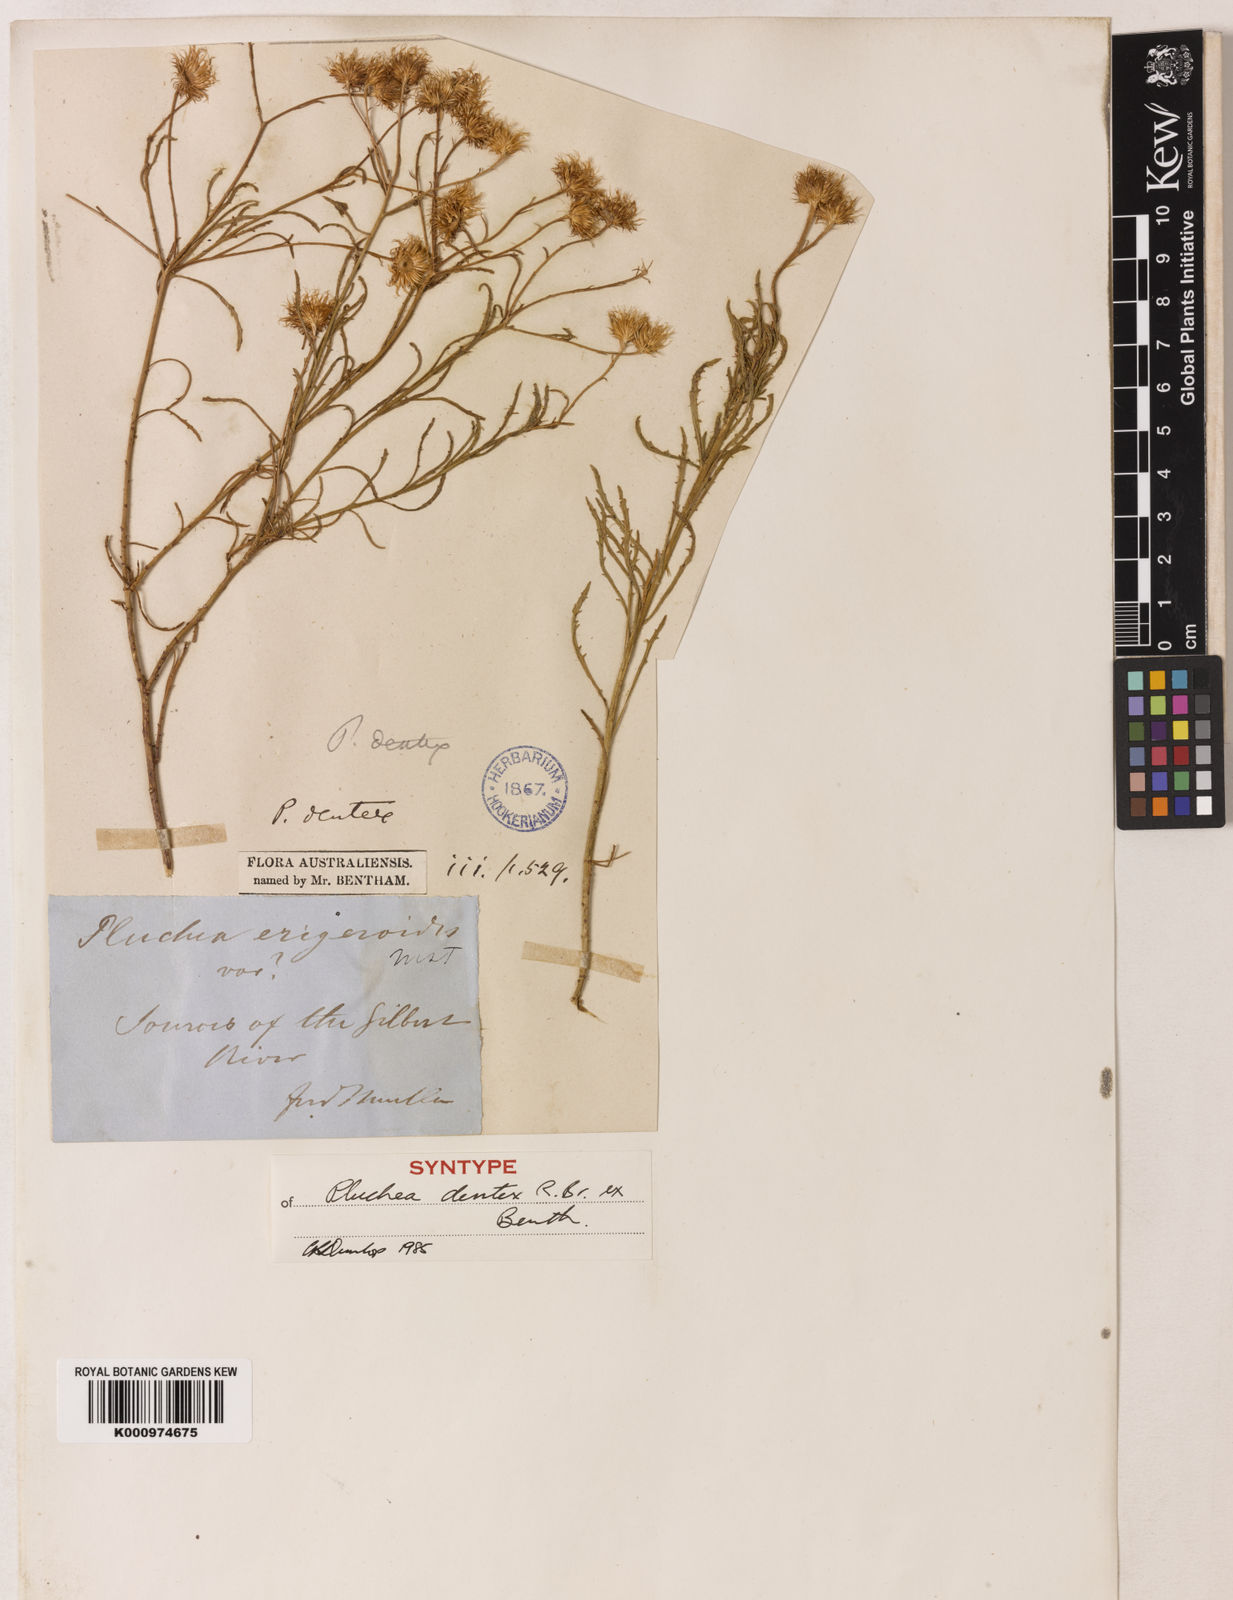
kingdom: Plantae
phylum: Tracheophyta
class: Magnoliopsida
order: Asterales
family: Asteraceae
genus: Pluchea
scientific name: Pluchea dentex
